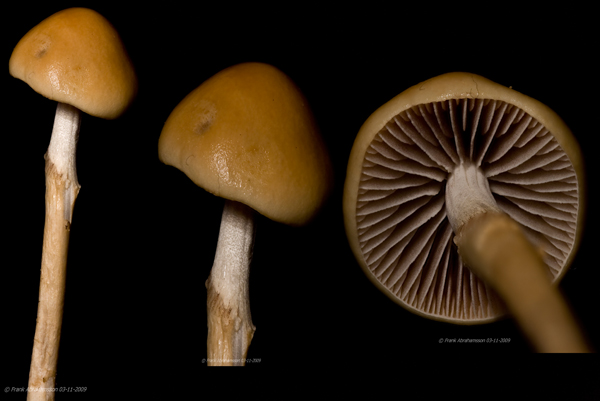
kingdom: Fungi
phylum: Basidiomycota
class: Agaricomycetes
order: Agaricales
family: Strophariaceae
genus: Protostropharia
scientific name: Protostropharia semiglobata
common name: halvkugleformet bredblad
